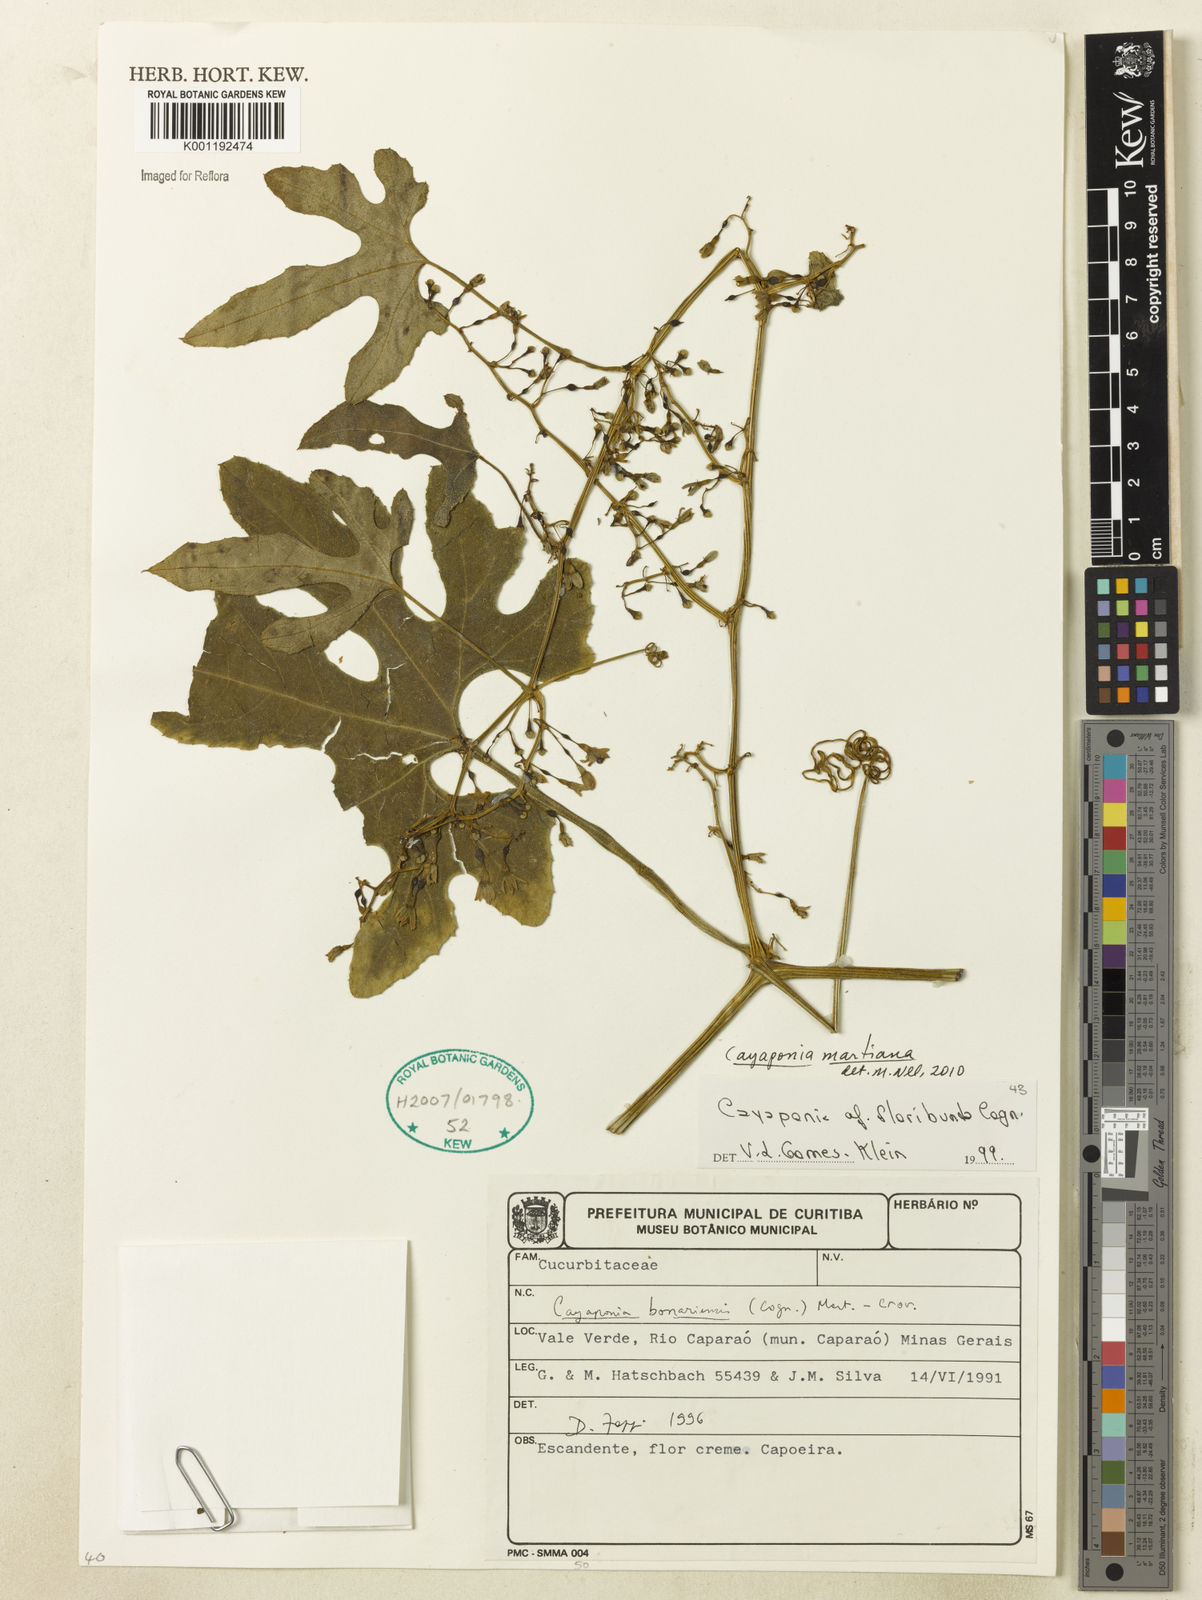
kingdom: Plantae
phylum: Tracheophyta
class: Magnoliopsida
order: Cucurbitales
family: Cucurbitaceae
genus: Cayaponia
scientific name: Cayaponia martiana
